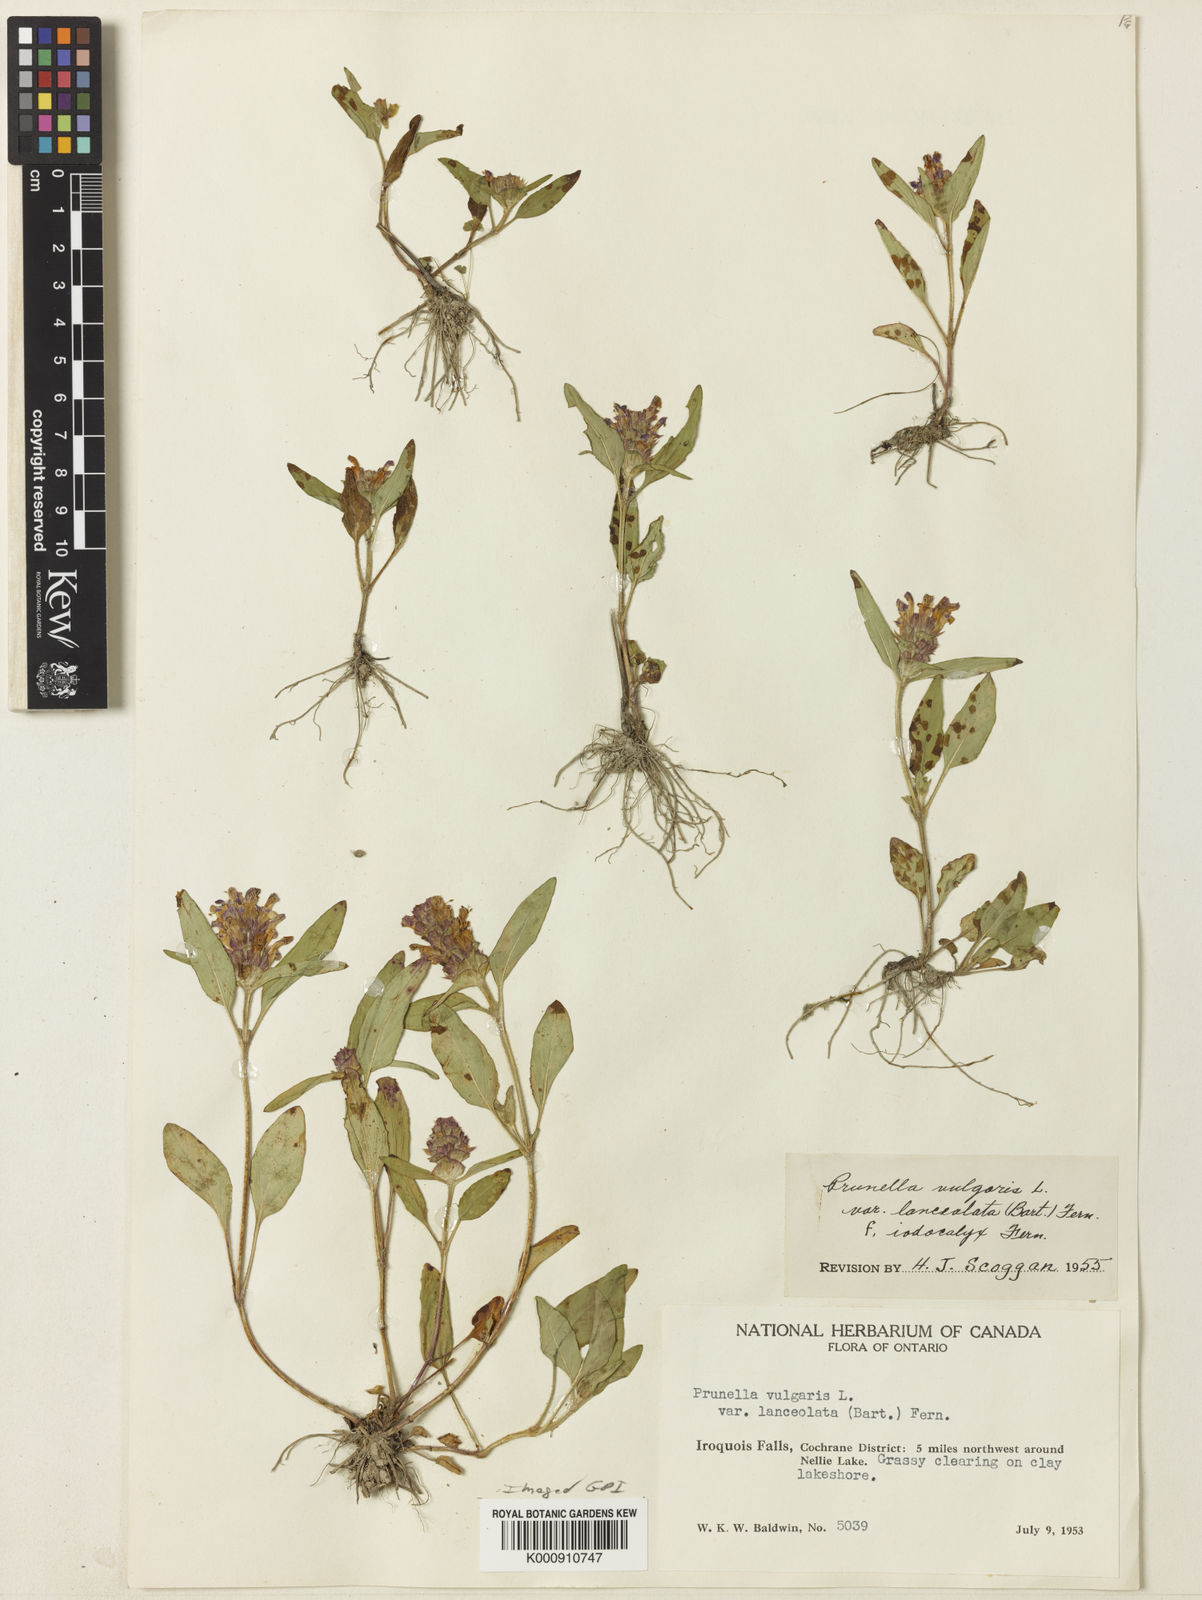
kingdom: Plantae
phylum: Tracheophyta
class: Magnoliopsida
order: Lamiales
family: Lamiaceae
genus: Prunella
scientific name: Prunella vulgaris
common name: Heal-all
